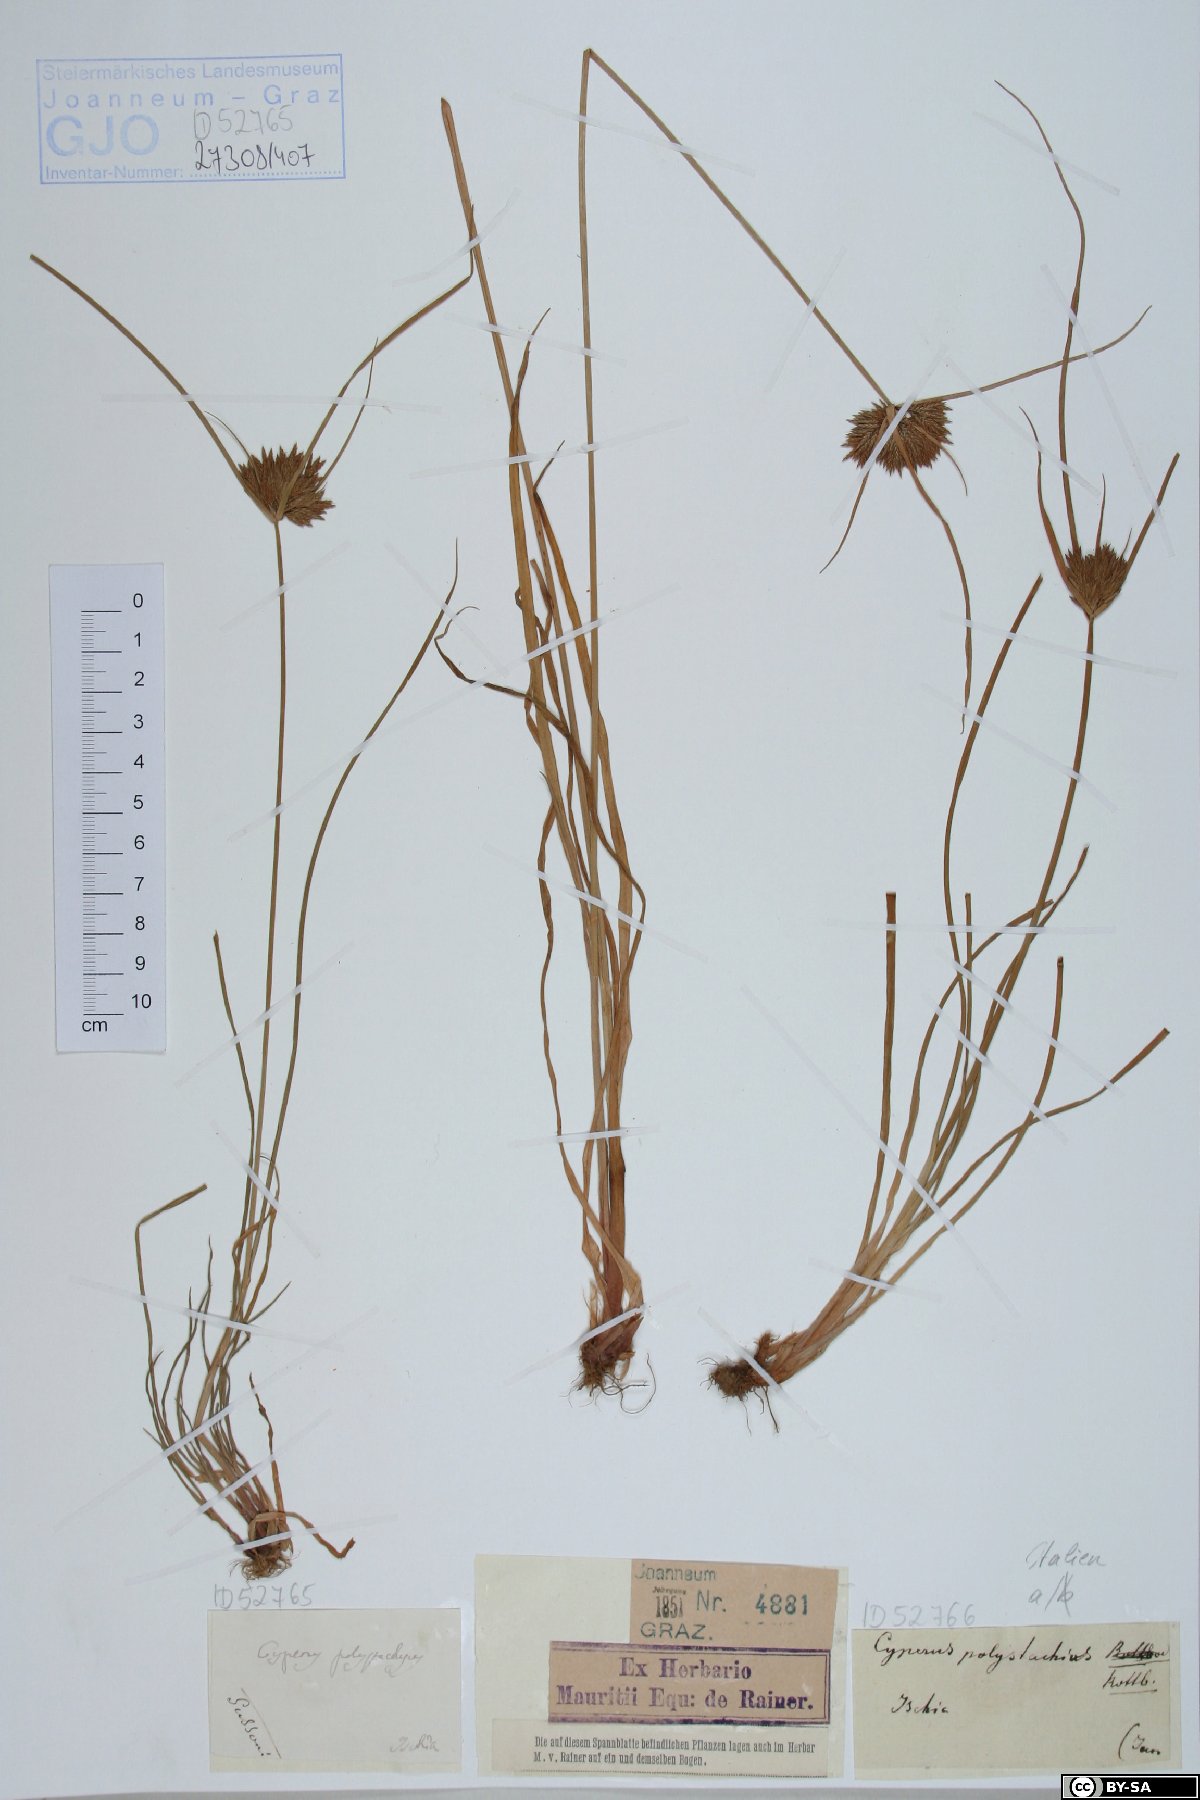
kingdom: Plantae
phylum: Tracheophyta
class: Liliopsida
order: Poales
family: Cyperaceae
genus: Cyperus
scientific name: Cyperus polystachyos
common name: Bunchy flat sedge
